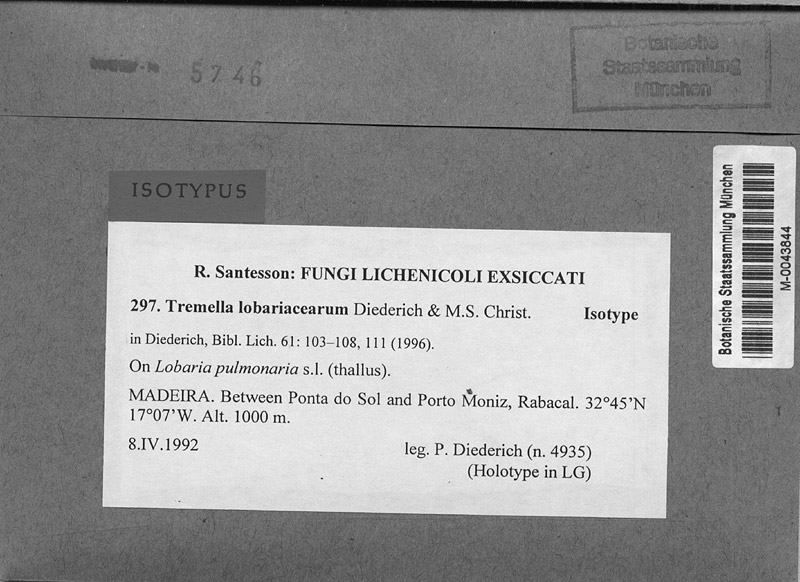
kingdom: Fungi
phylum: Ascomycota
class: Lecanoromycetes
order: Peltigerales
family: Lobariaceae
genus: Lobaria
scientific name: Lobaria pulmonaria
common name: Lungwort
